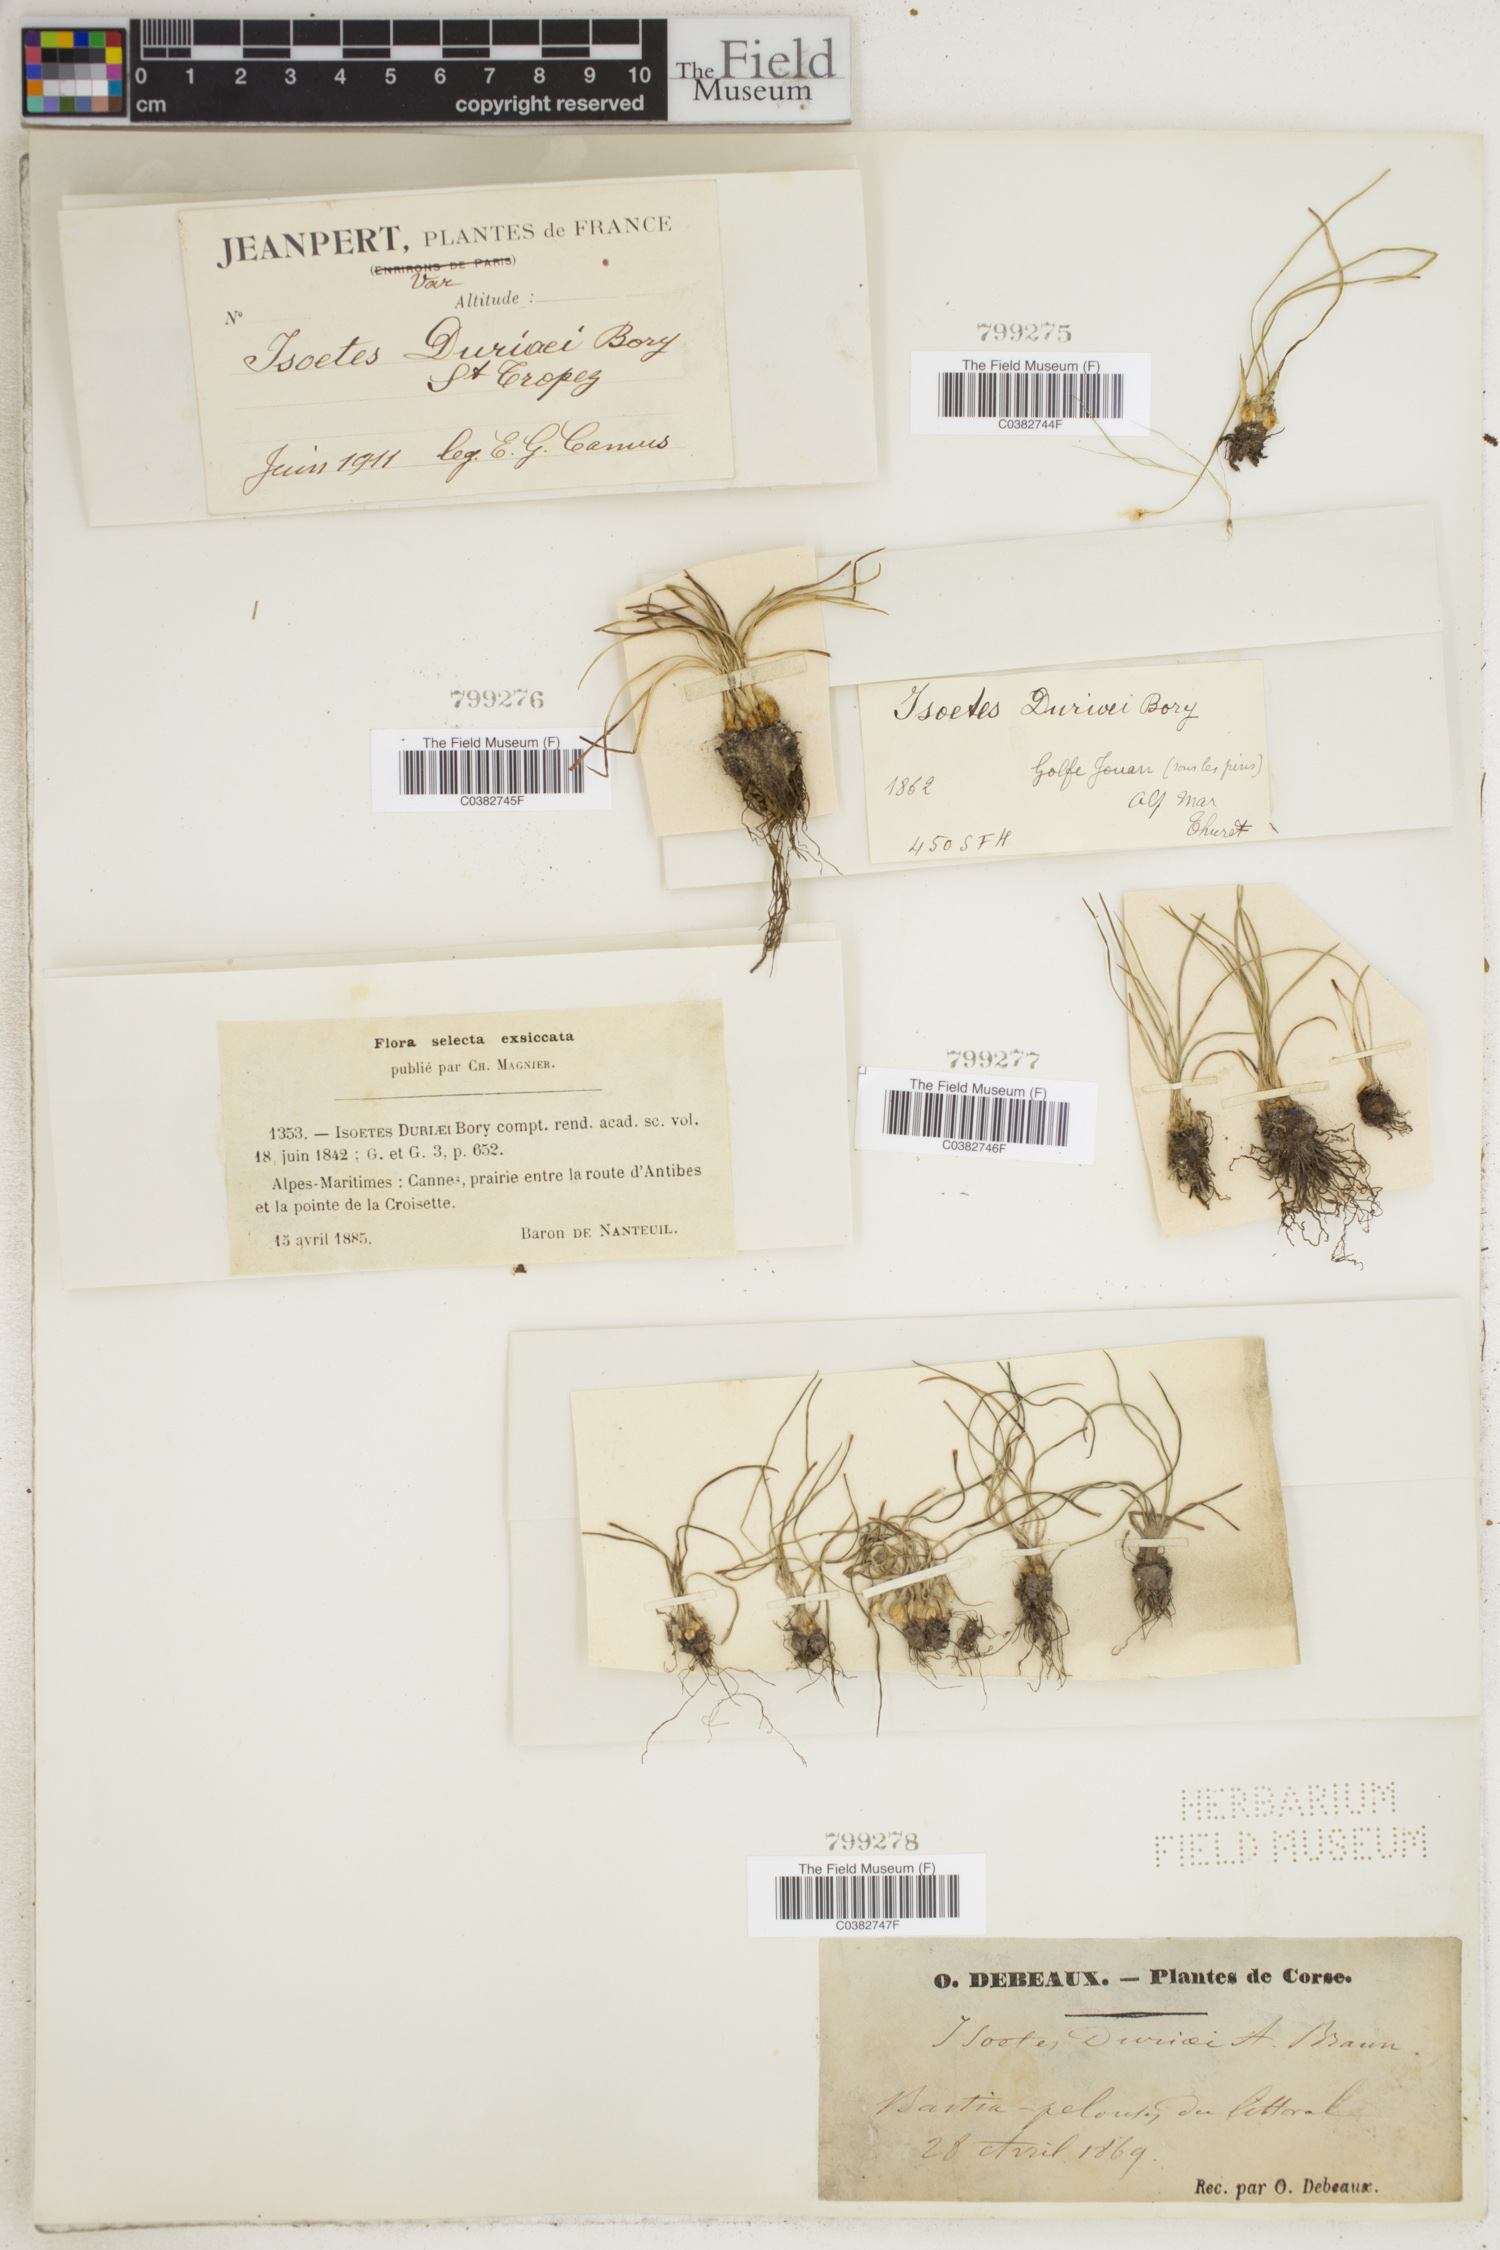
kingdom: Plantae
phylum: Tracheophyta
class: Lycopodiopsida
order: Isoetales
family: Isoetaceae
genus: Isoetes
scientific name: Isoetes duriei
